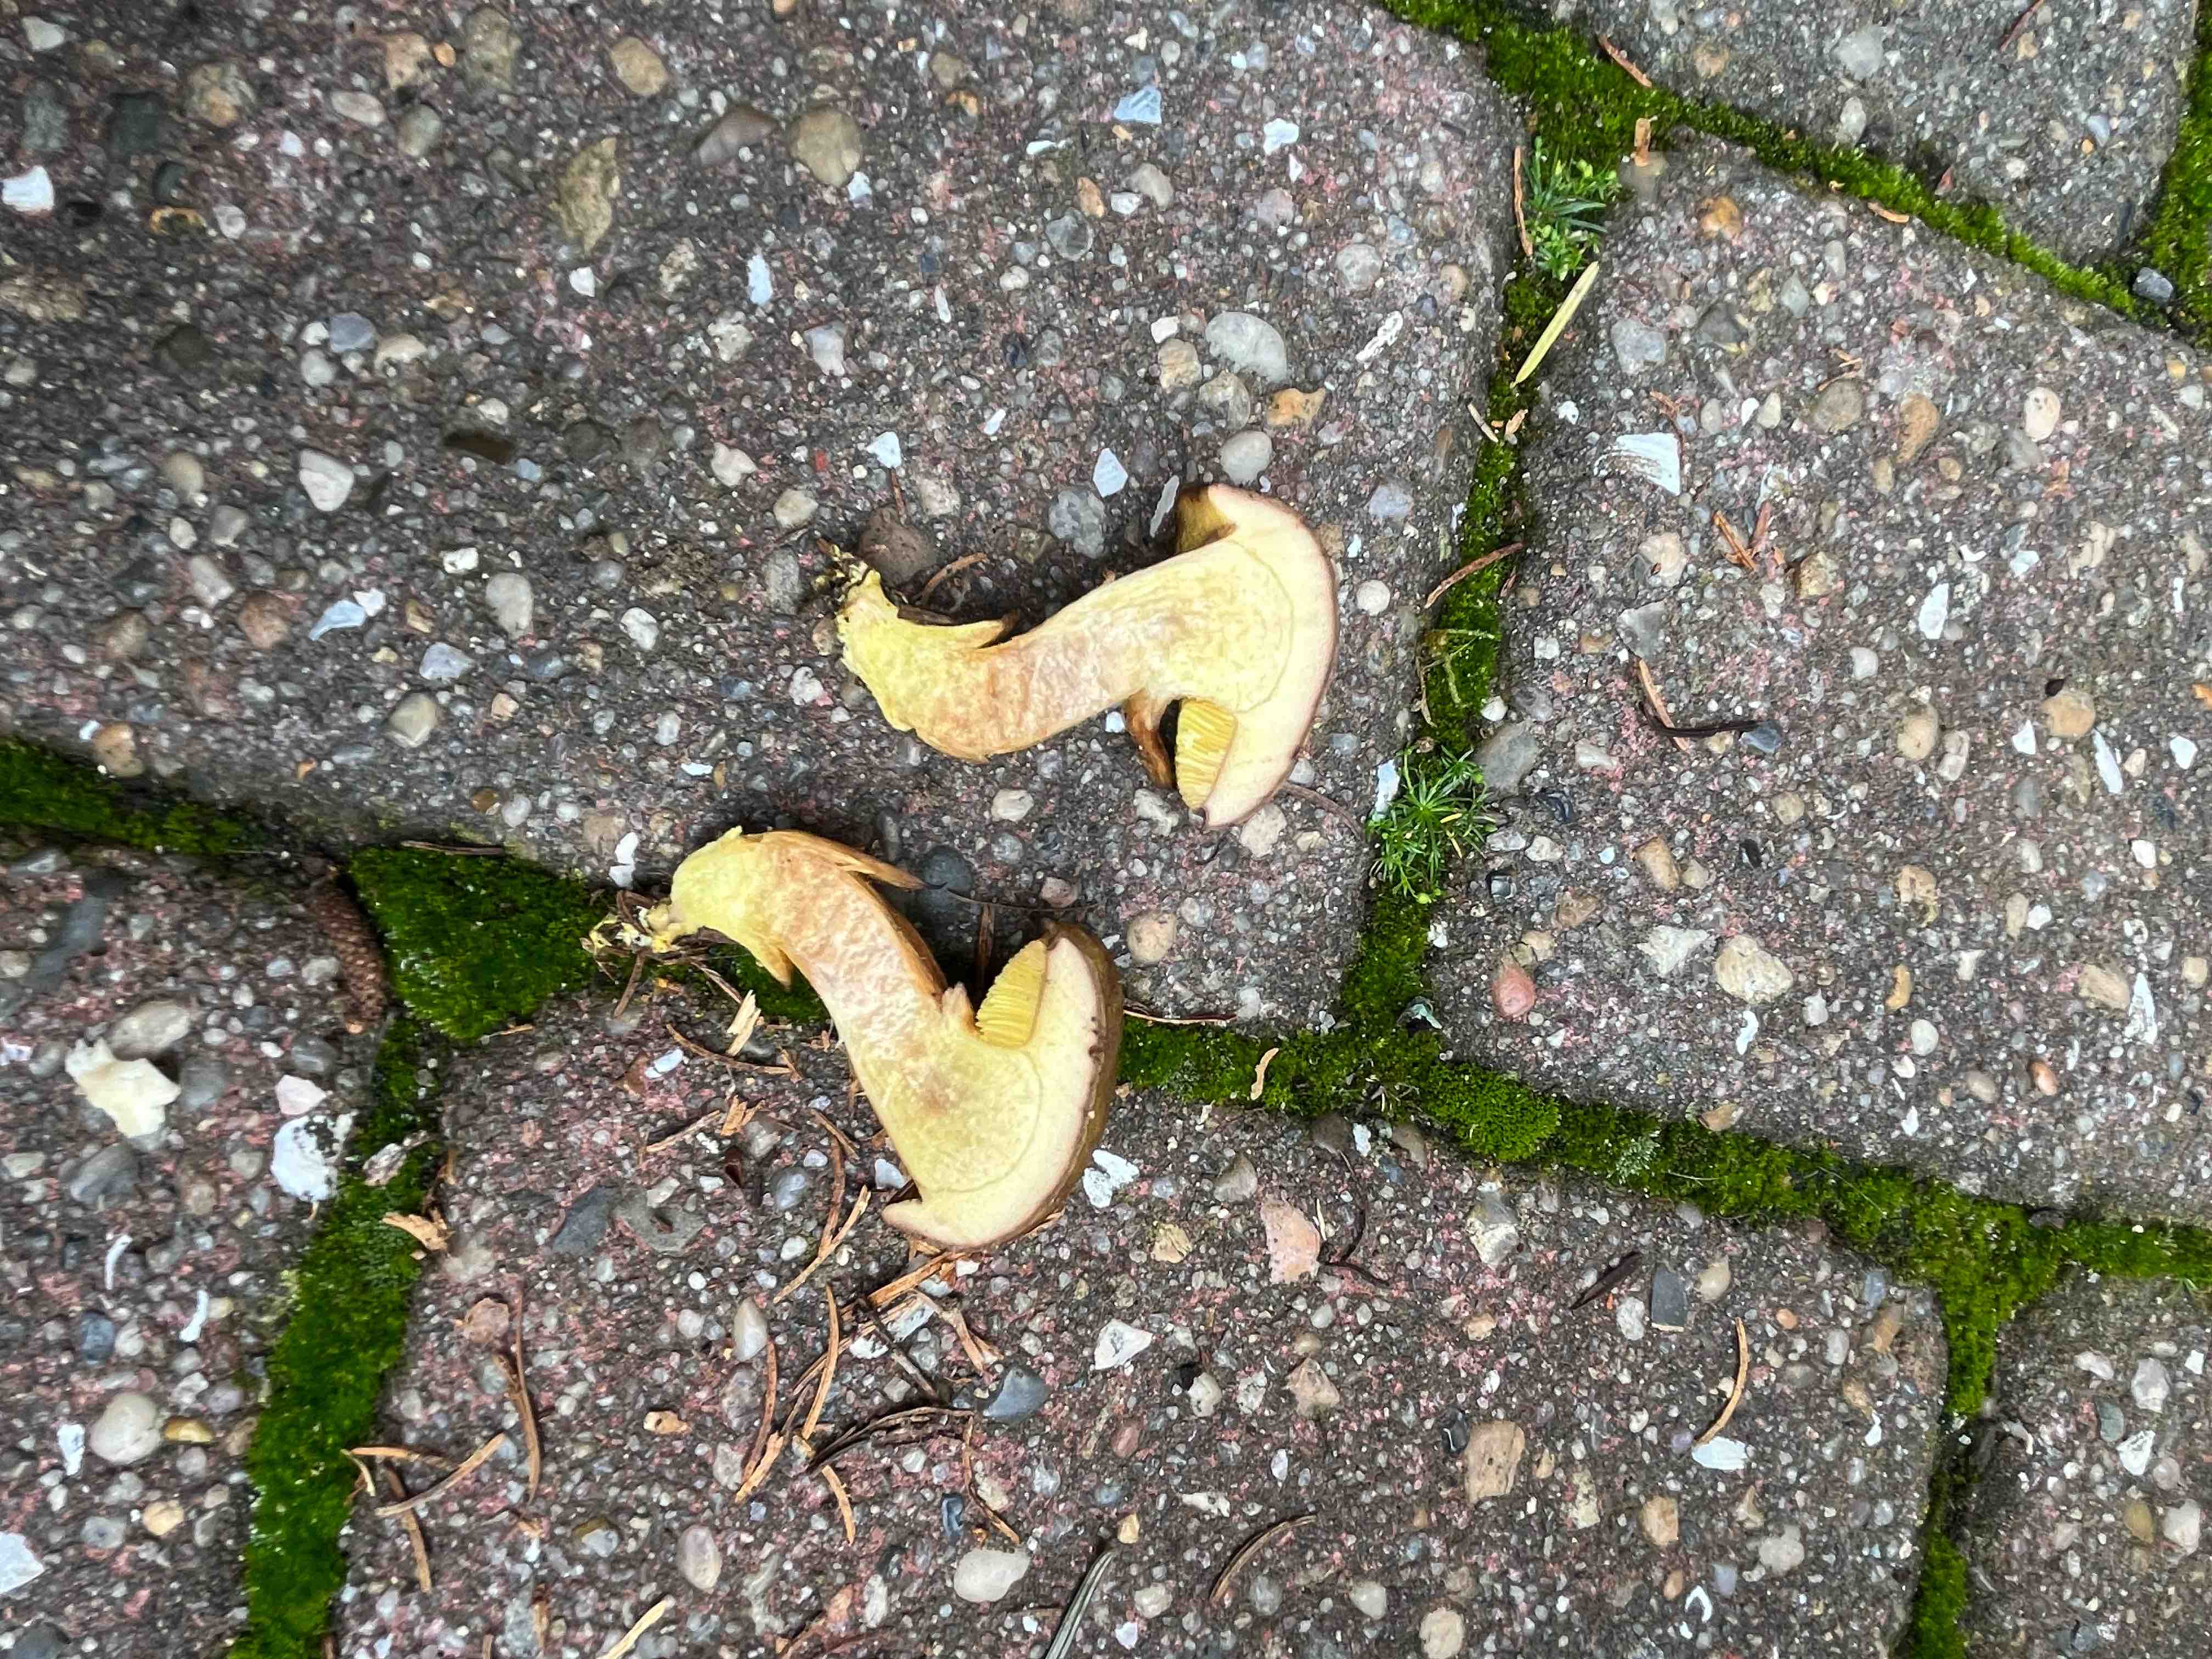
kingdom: Fungi
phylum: Basidiomycota
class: Agaricomycetes
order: Boletales
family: Boletaceae
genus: Xerocomus
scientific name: Xerocomus ferrugineus
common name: vaskeskinds-rørhat
